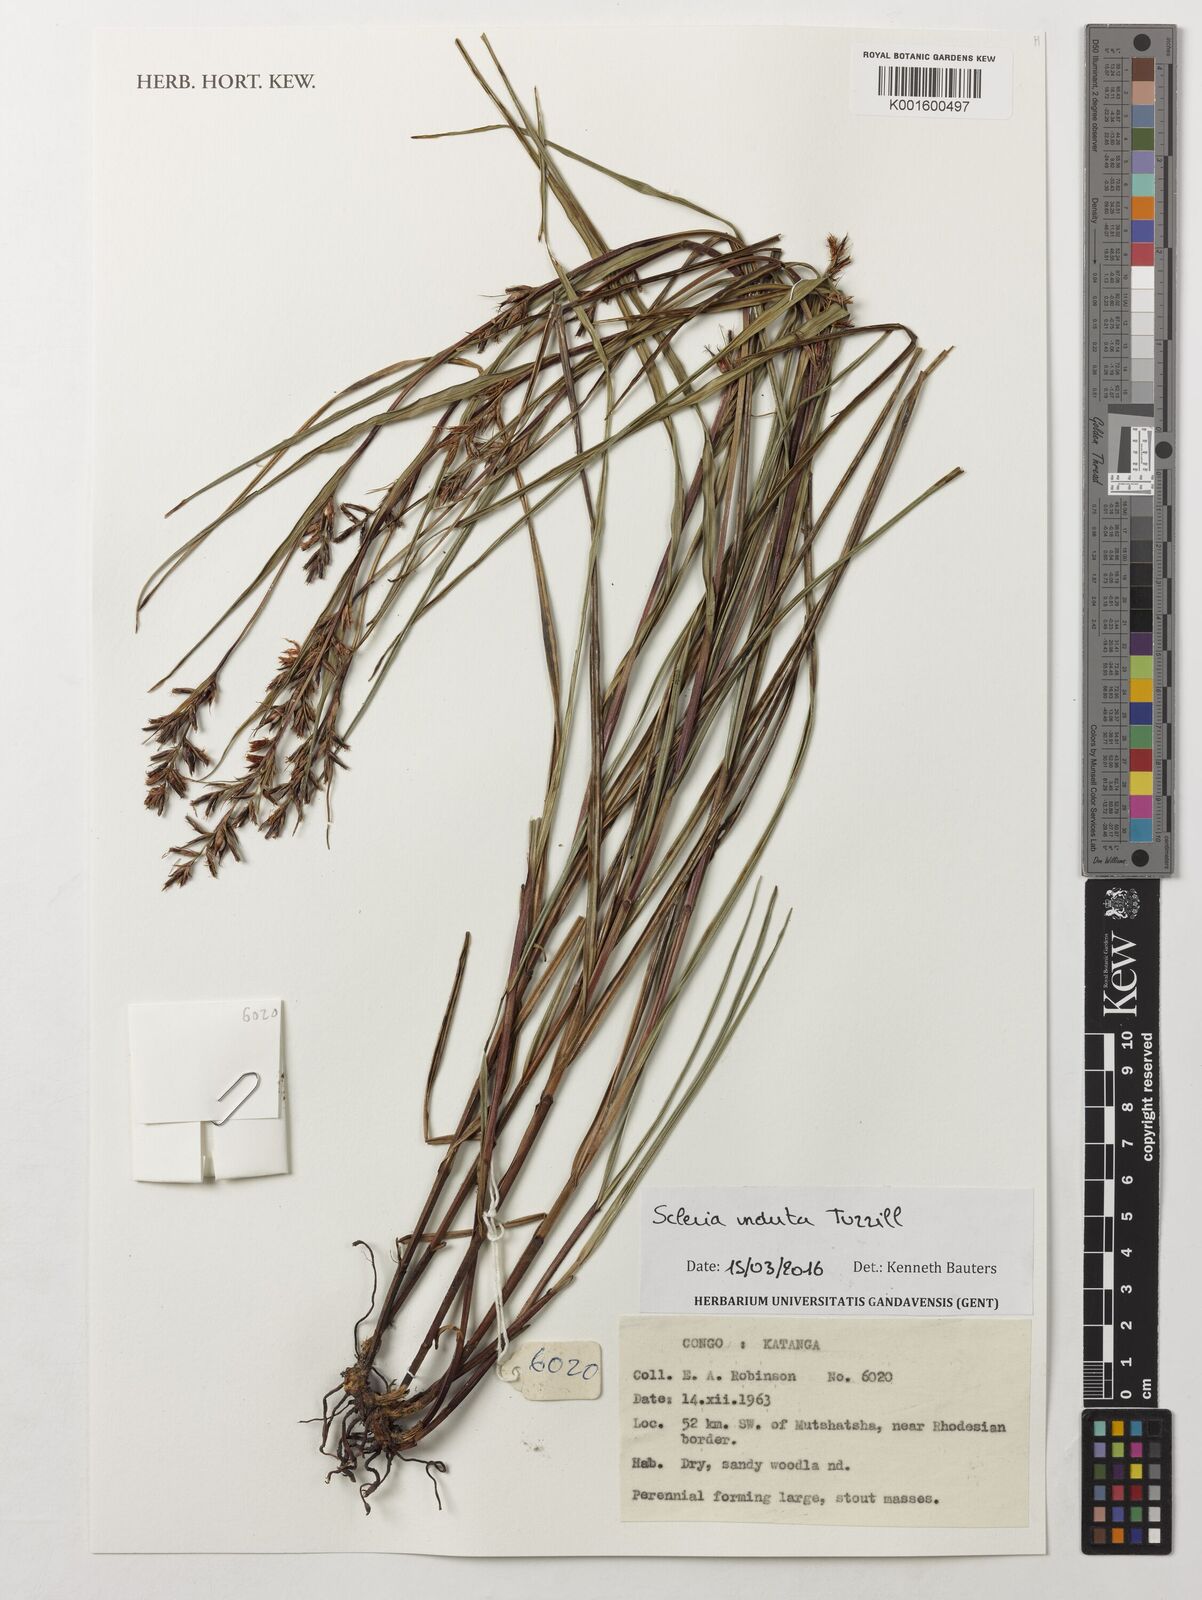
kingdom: Plantae
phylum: Tracheophyta
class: Liliopsida
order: Poales
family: Cyperaceae
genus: Scleria
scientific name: Scleria induta
